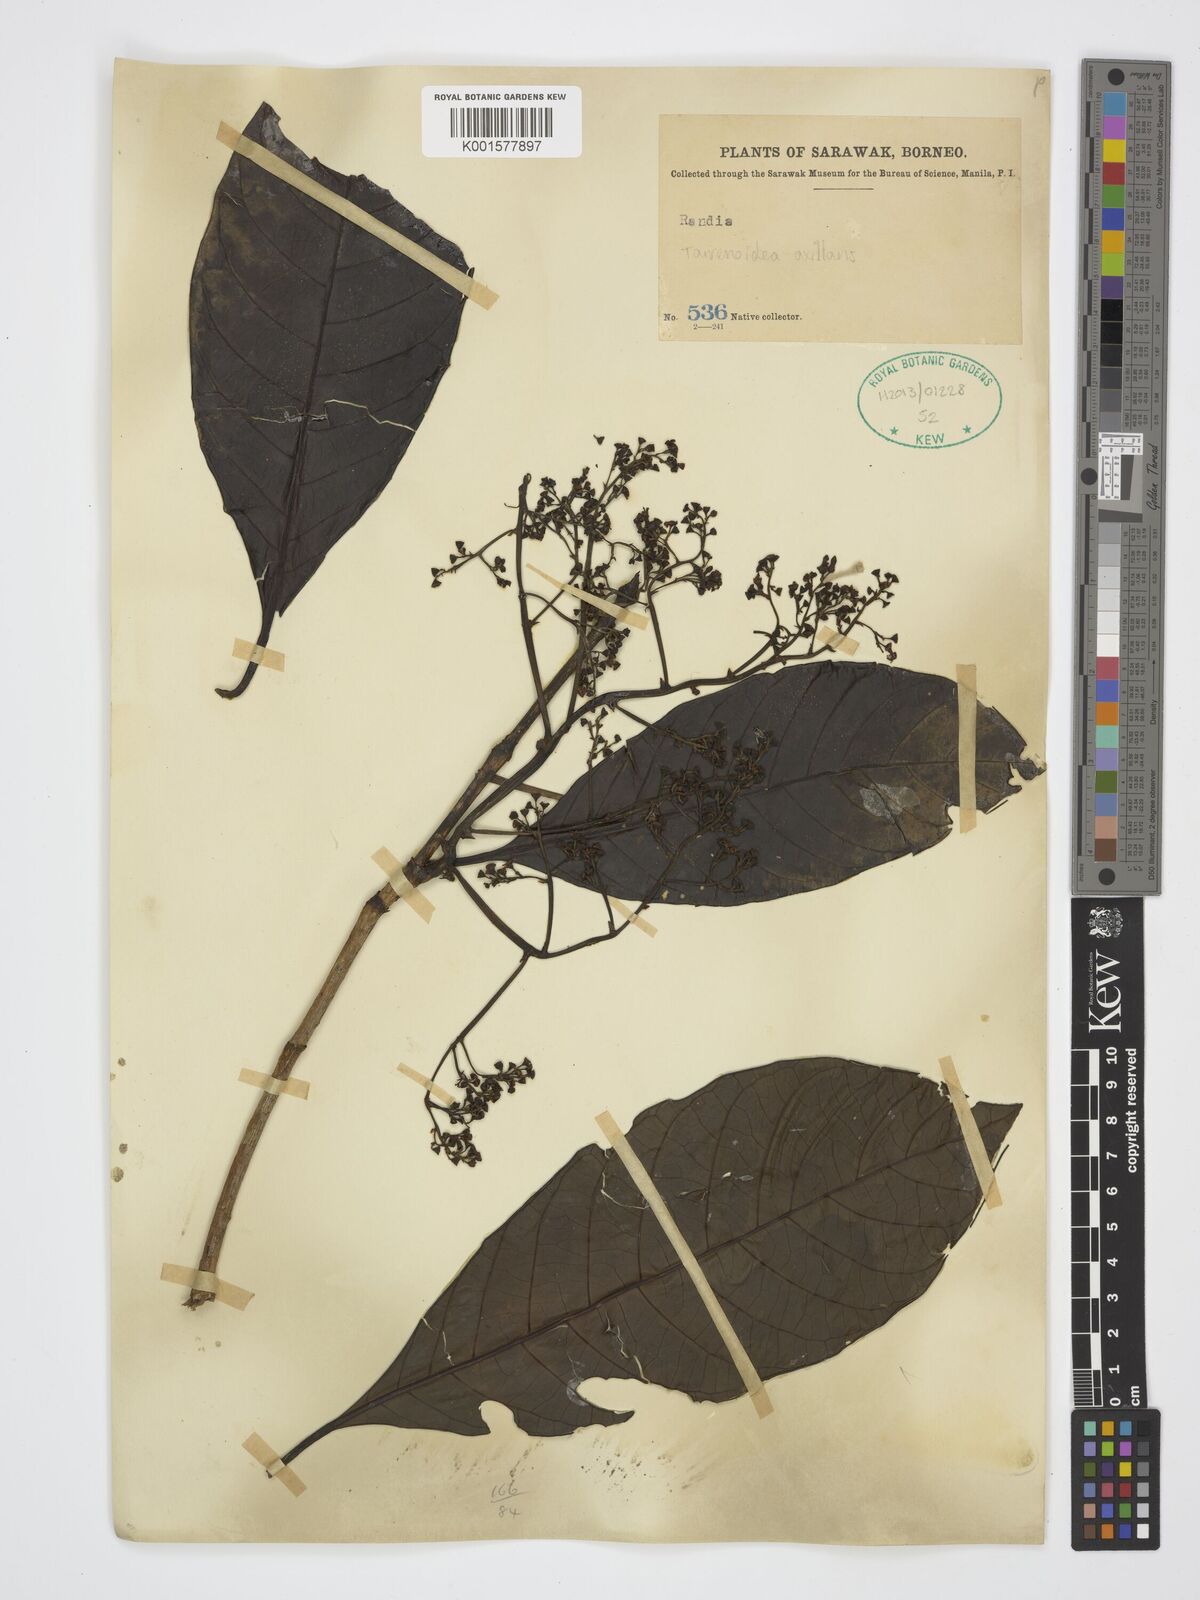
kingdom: Plantae
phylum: Tracheophyta
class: Magnoliopsida
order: Gentianales
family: Rubiaceae
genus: Tarennoidea
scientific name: Tarennoidea axillaris
